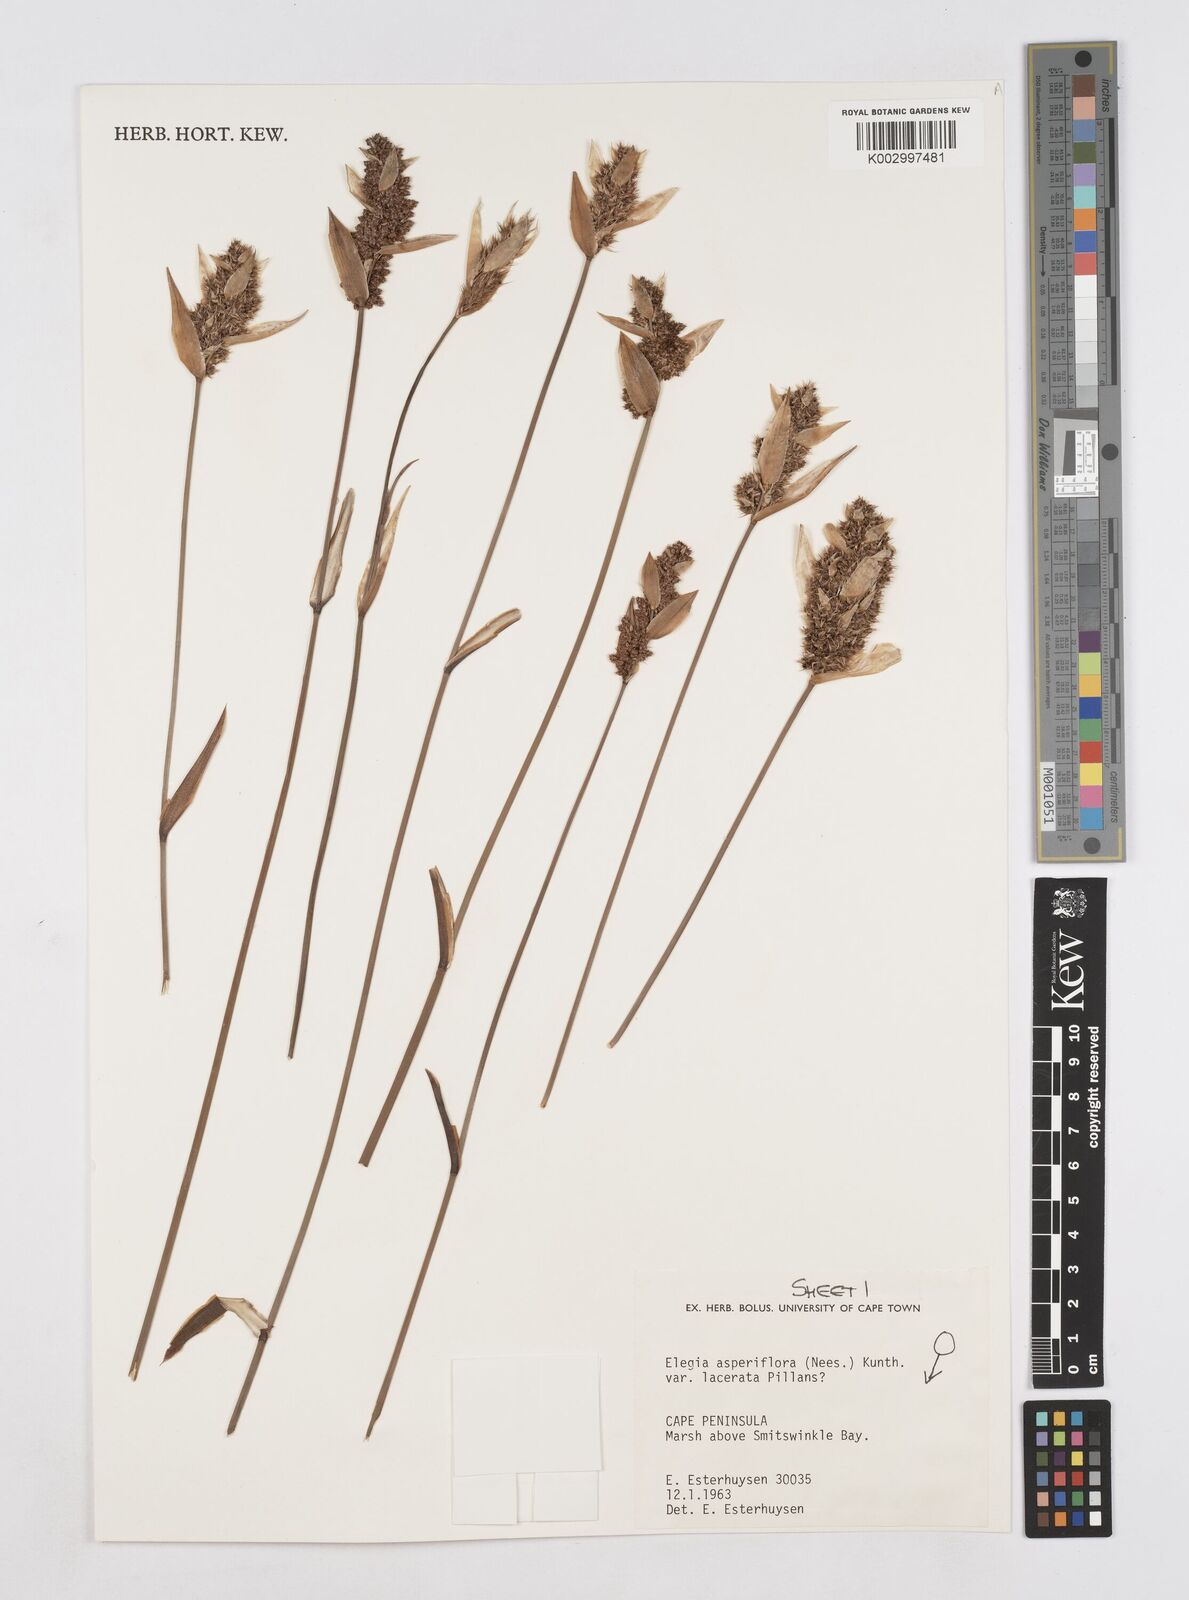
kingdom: Plantae
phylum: Tracheophyta
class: Liliopsida
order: Poales
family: Restionaceae
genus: Elegia
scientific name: Elegia asperiflora
